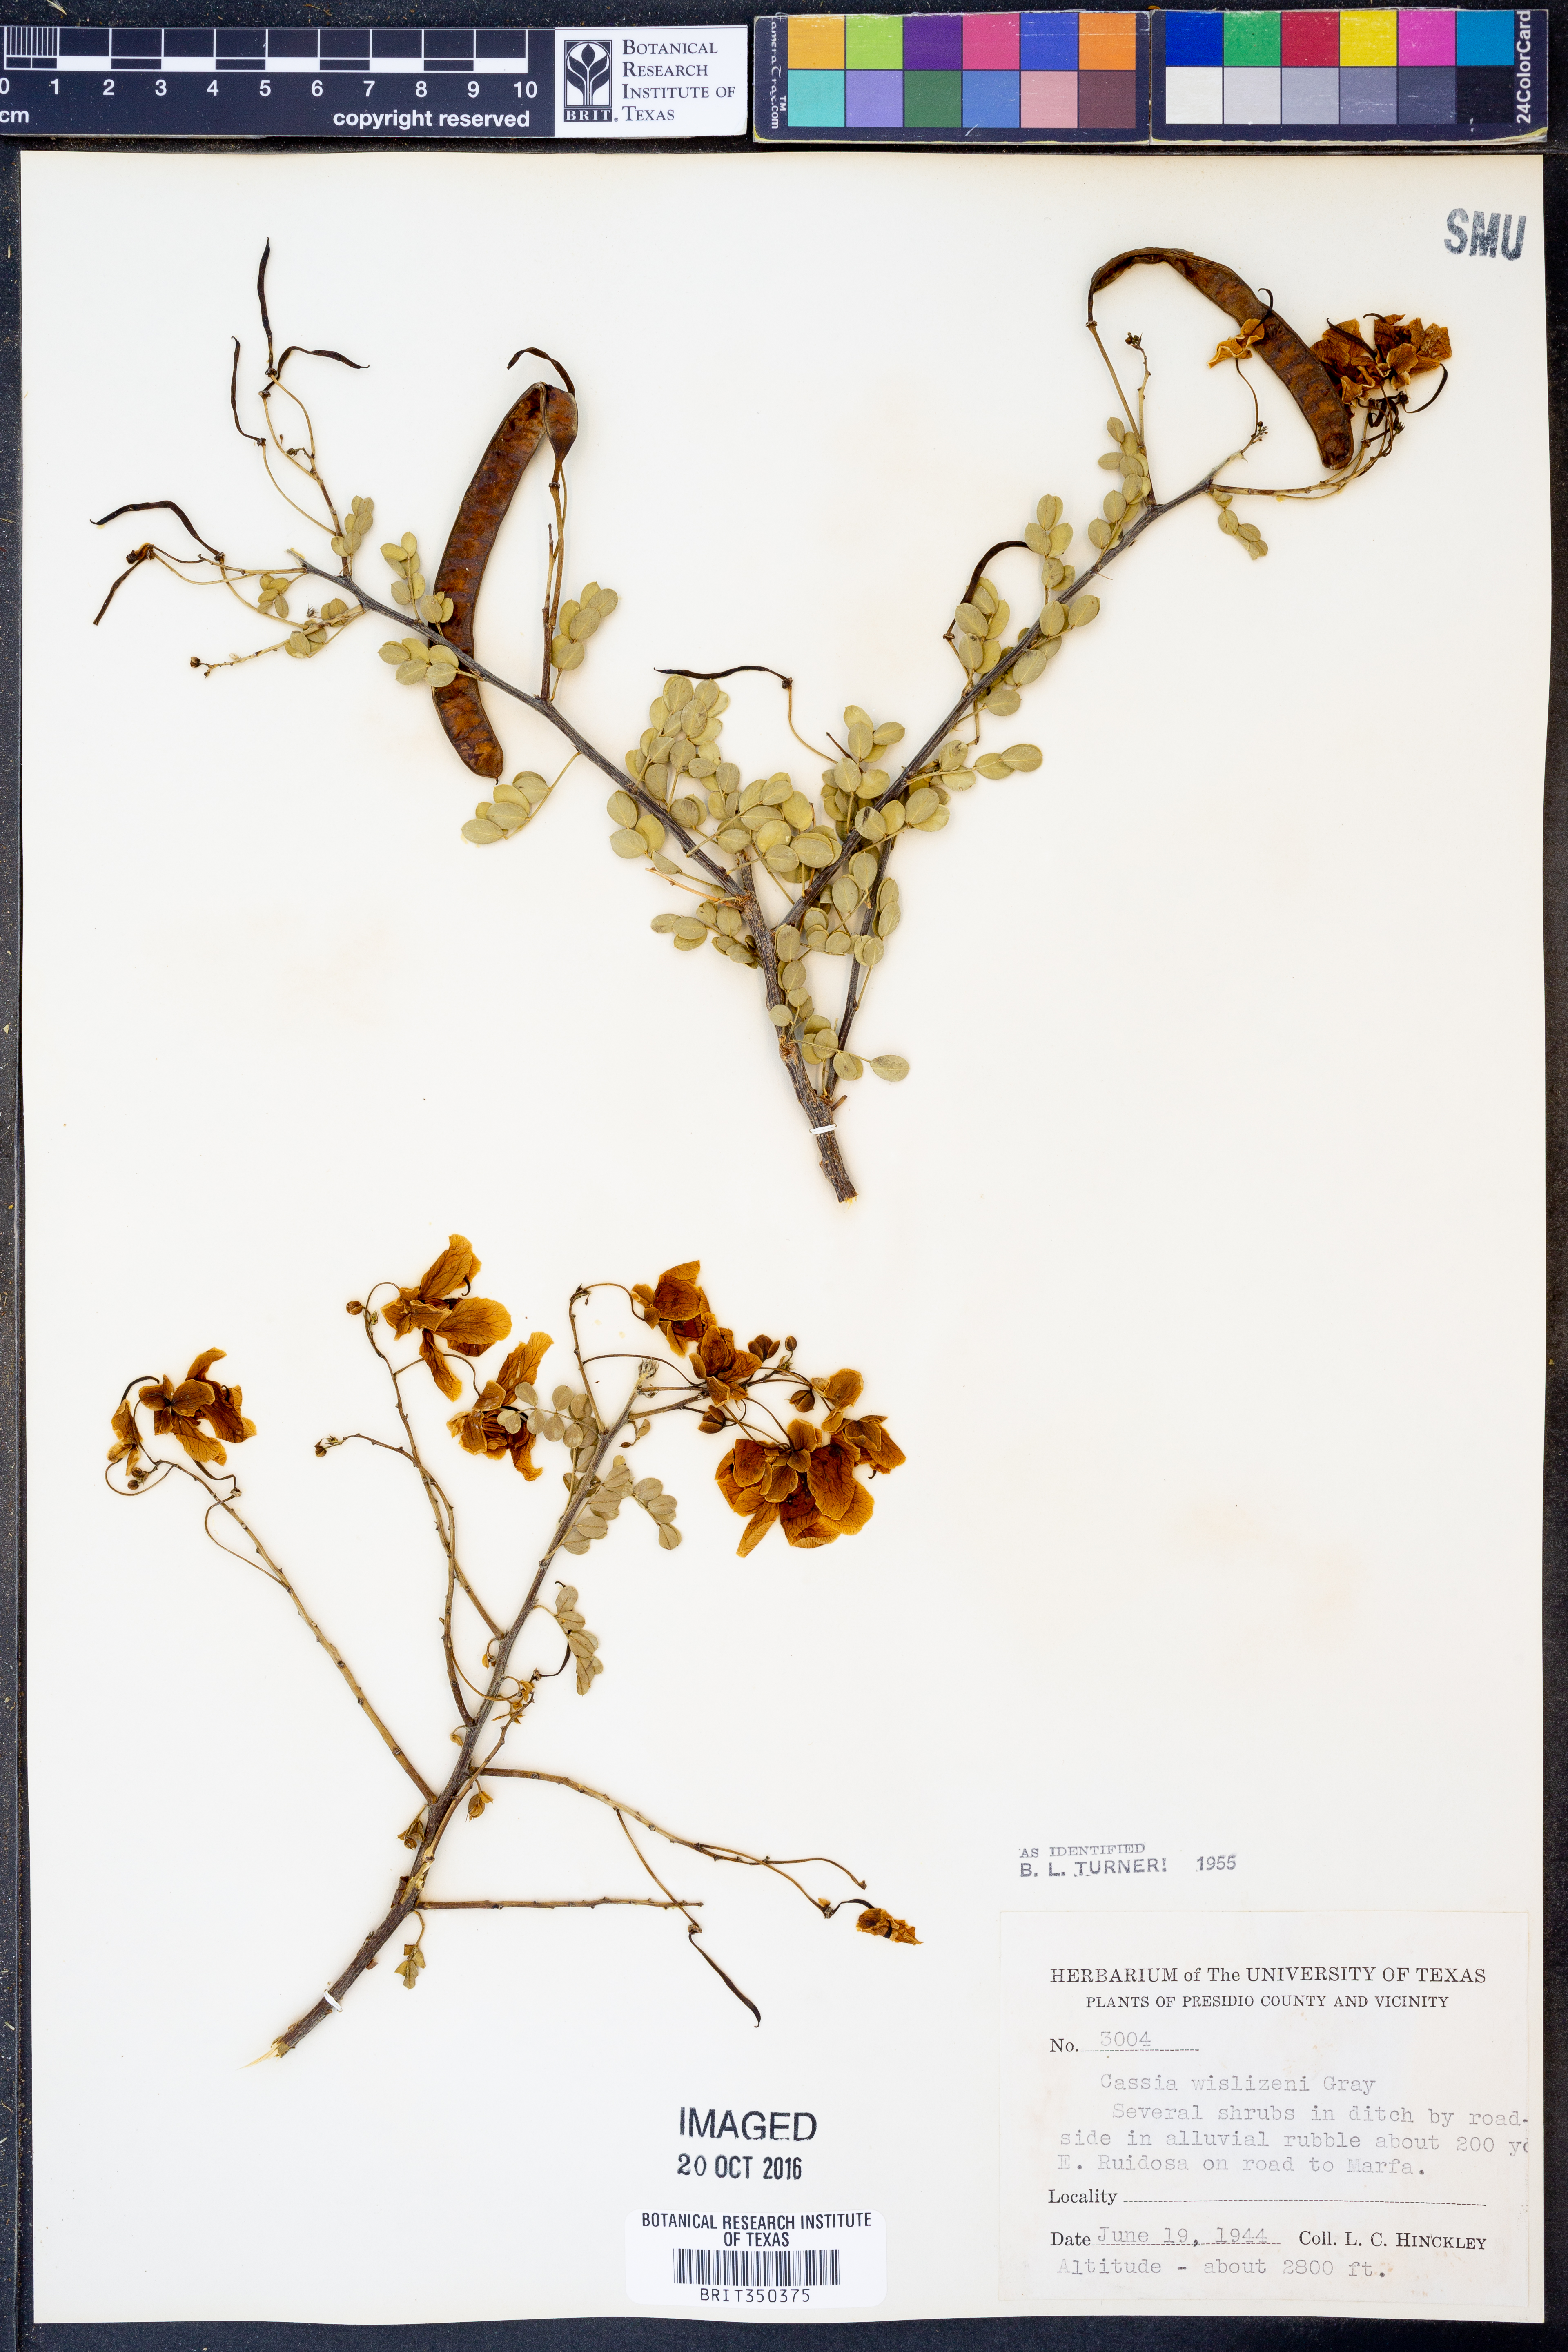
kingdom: Plantae
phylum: Tracheophyta
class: Magnoliopsida
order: Fabales
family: Fabaceae
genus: Senna
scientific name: Senna wislizeni
